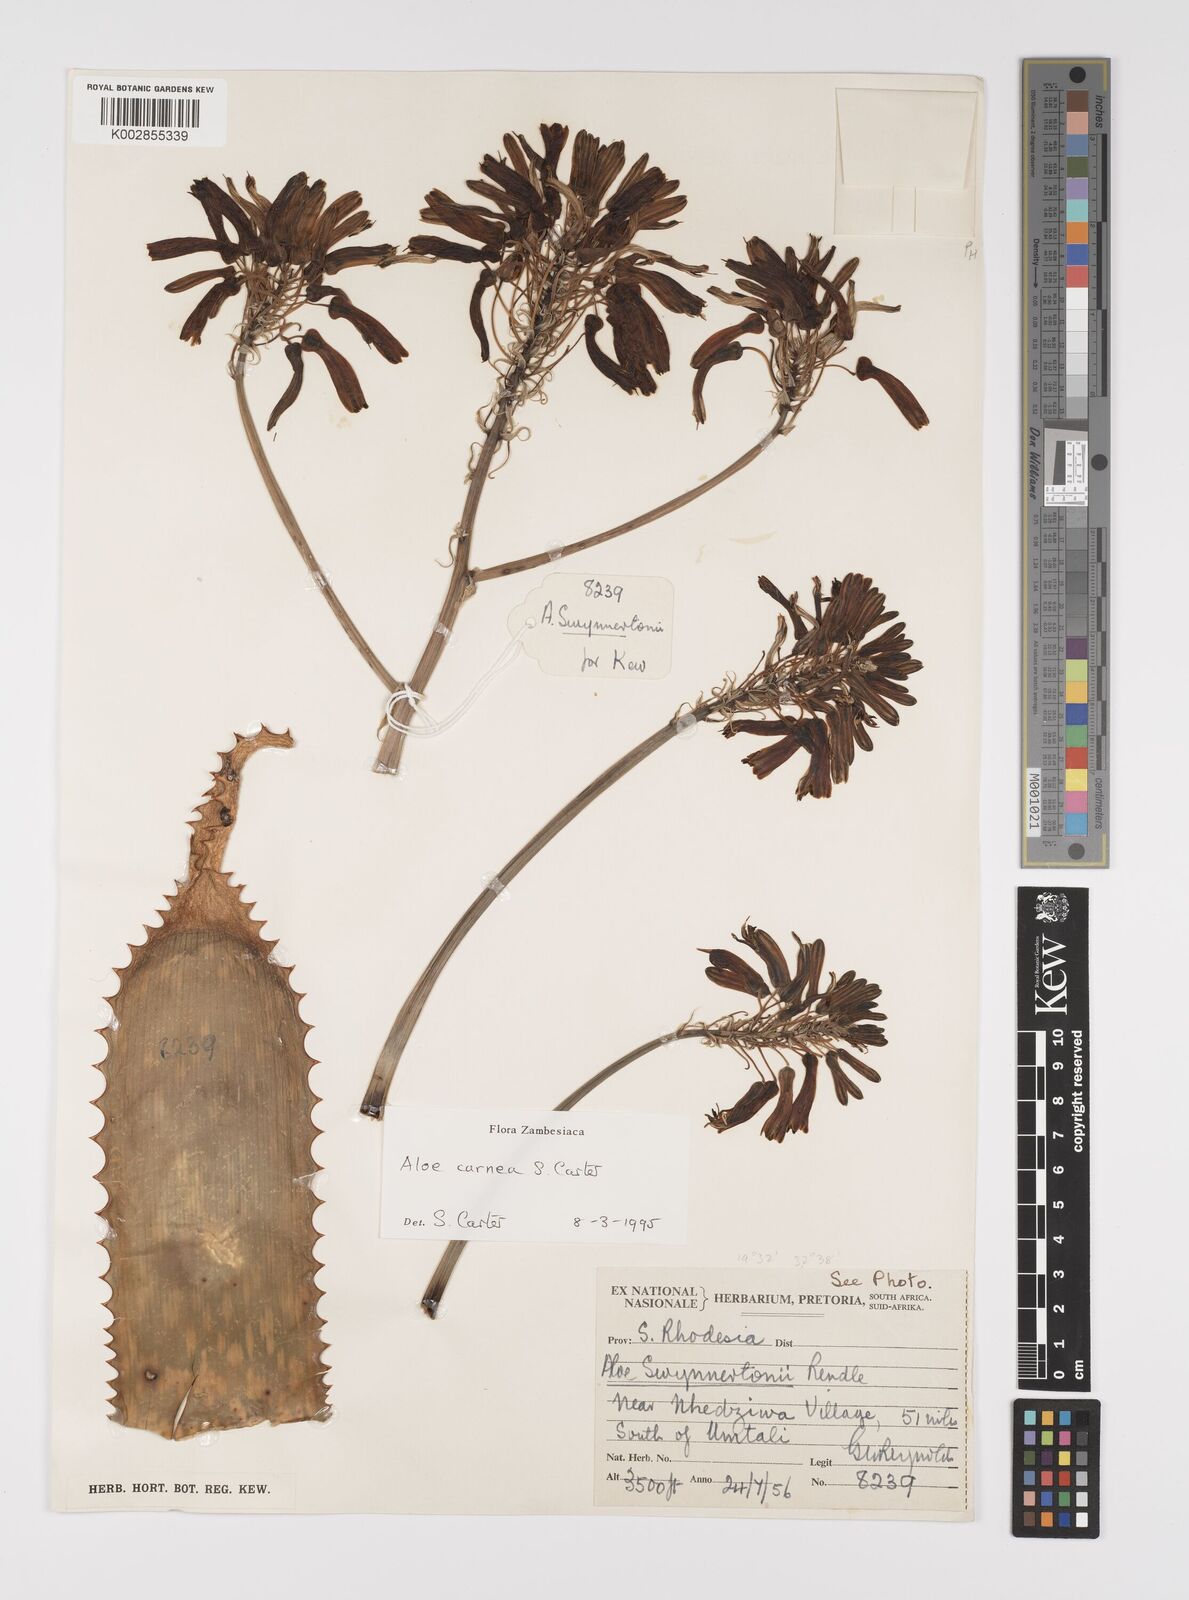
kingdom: Plantae
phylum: Tracheophyta
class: Liliopsida
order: Asparagales
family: Asphodelaceae
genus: Aloe
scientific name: Aloe carnea
